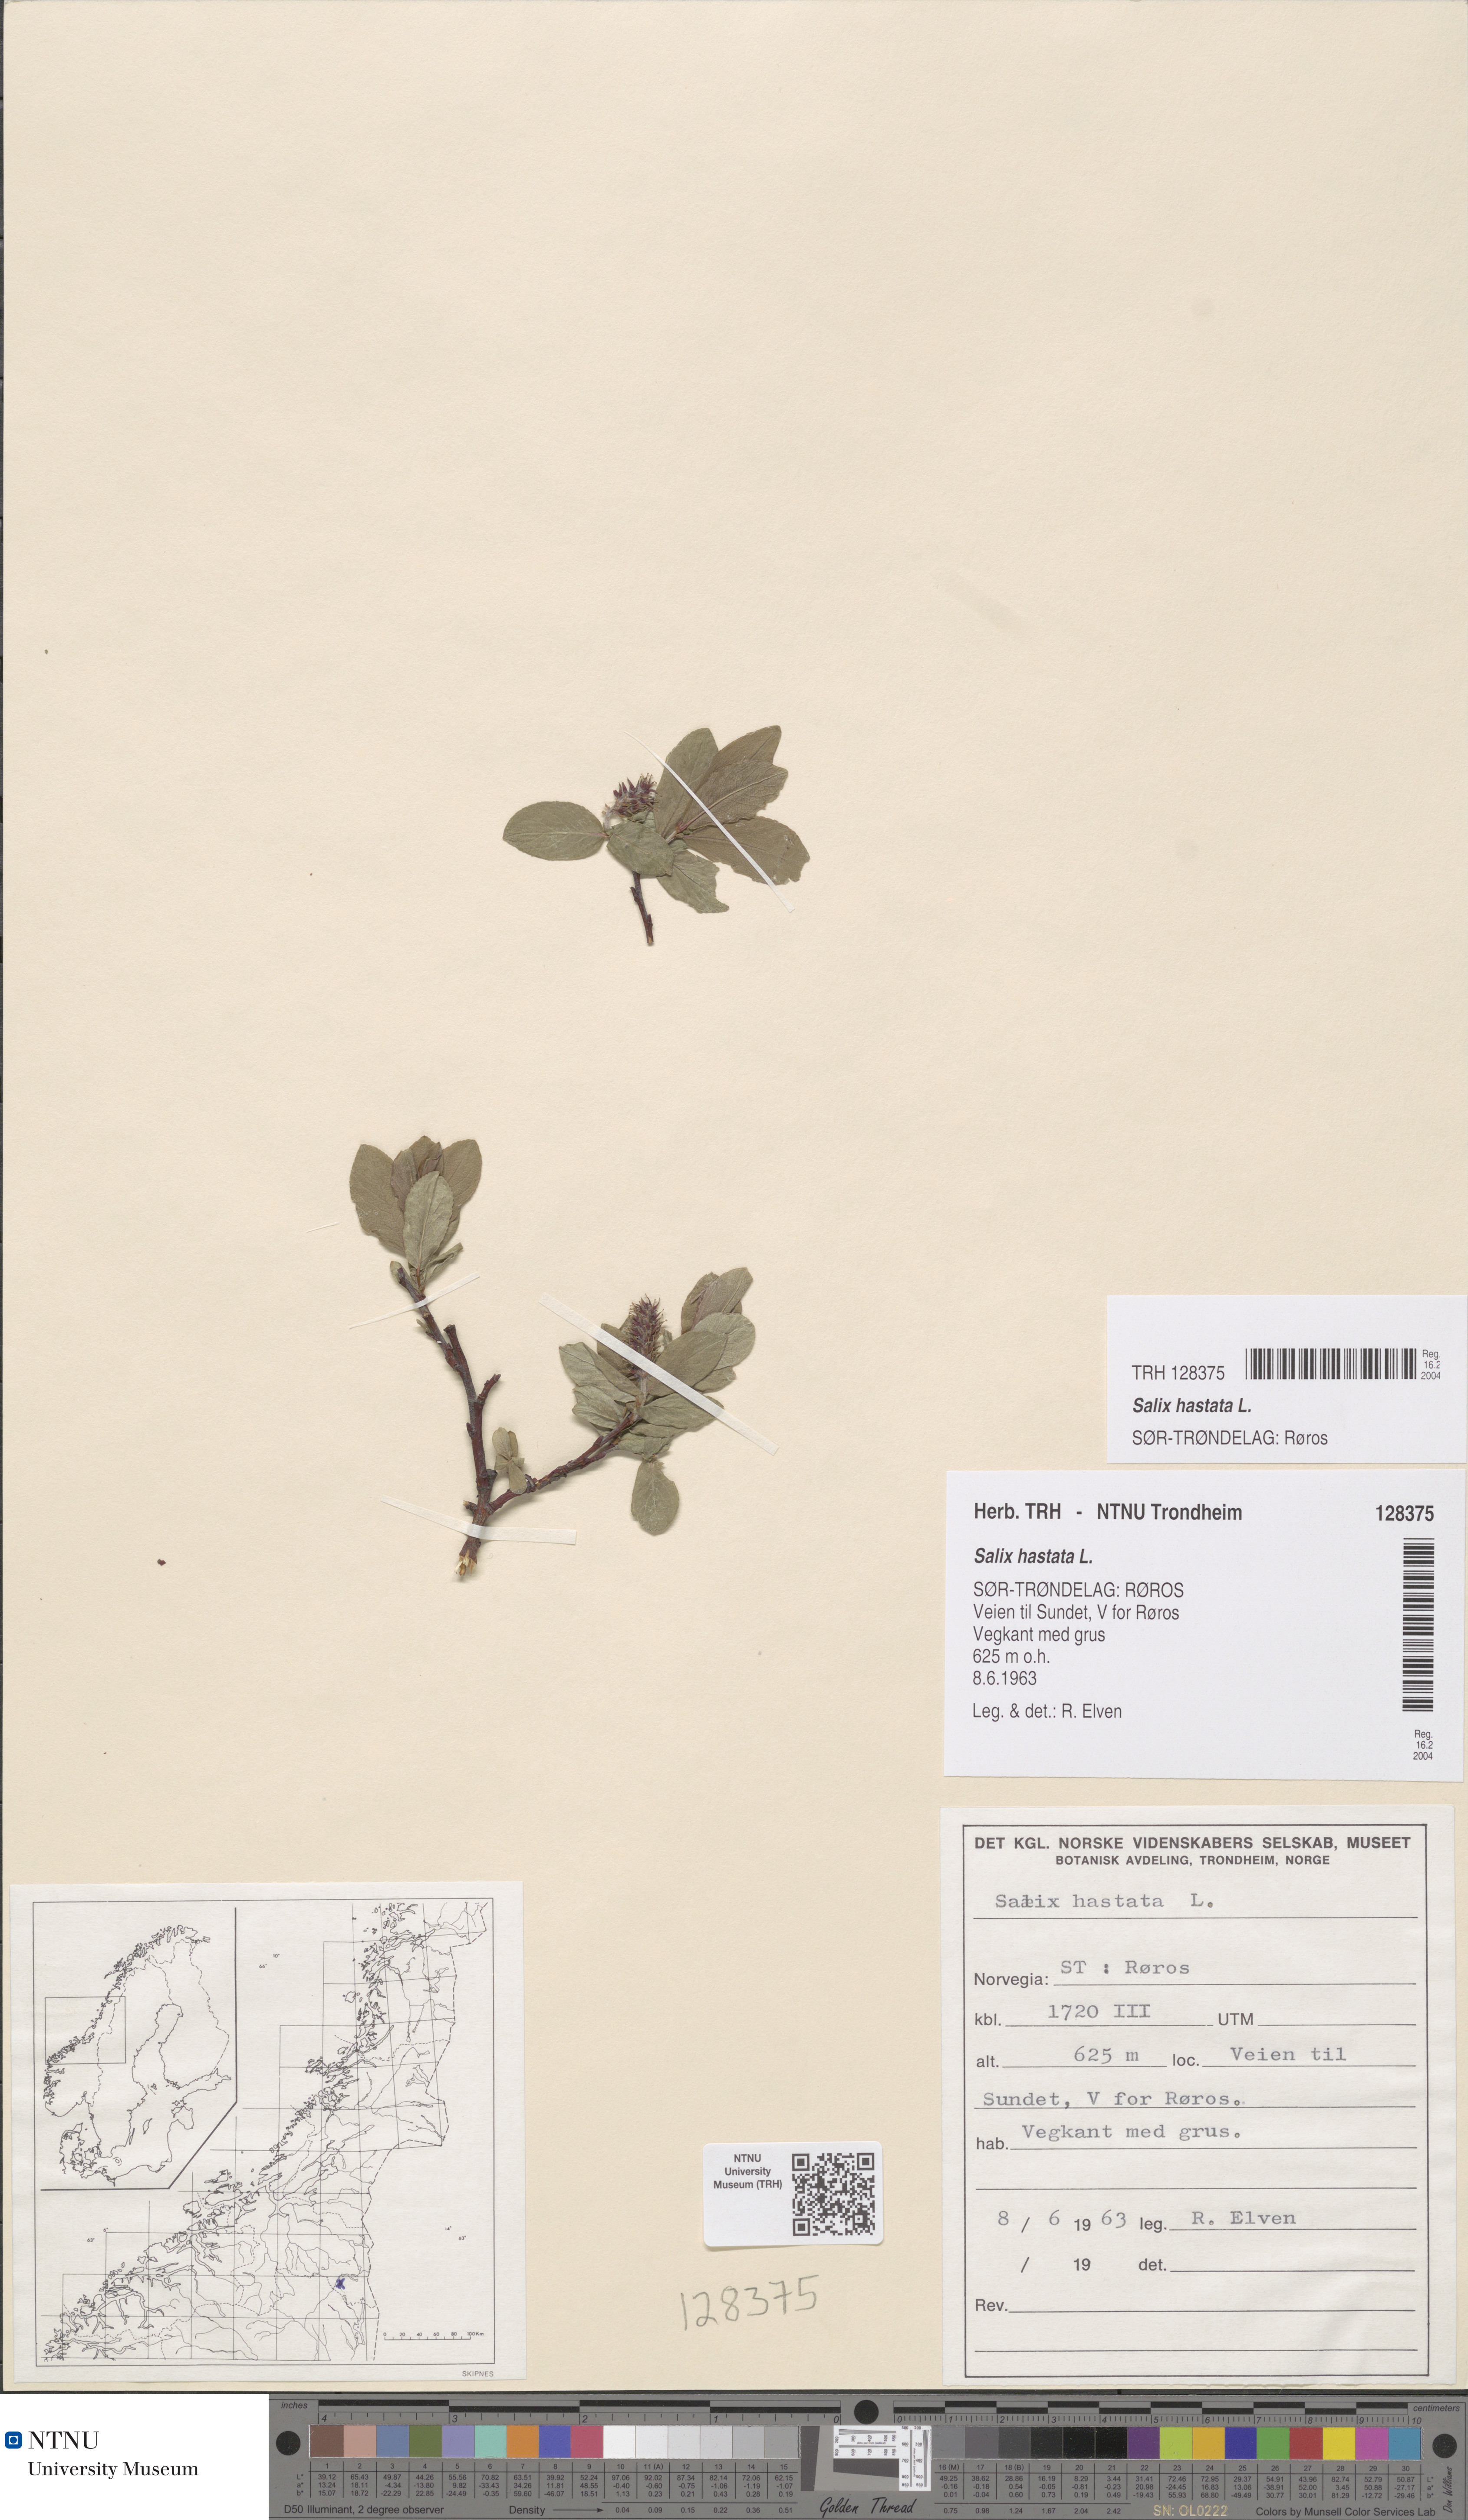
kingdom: Plantae
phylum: Tracheophyta
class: Magnoliopsida
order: Malpighiales
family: Salicaceae
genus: Salix
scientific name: Salix hastata
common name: Halberd willow
